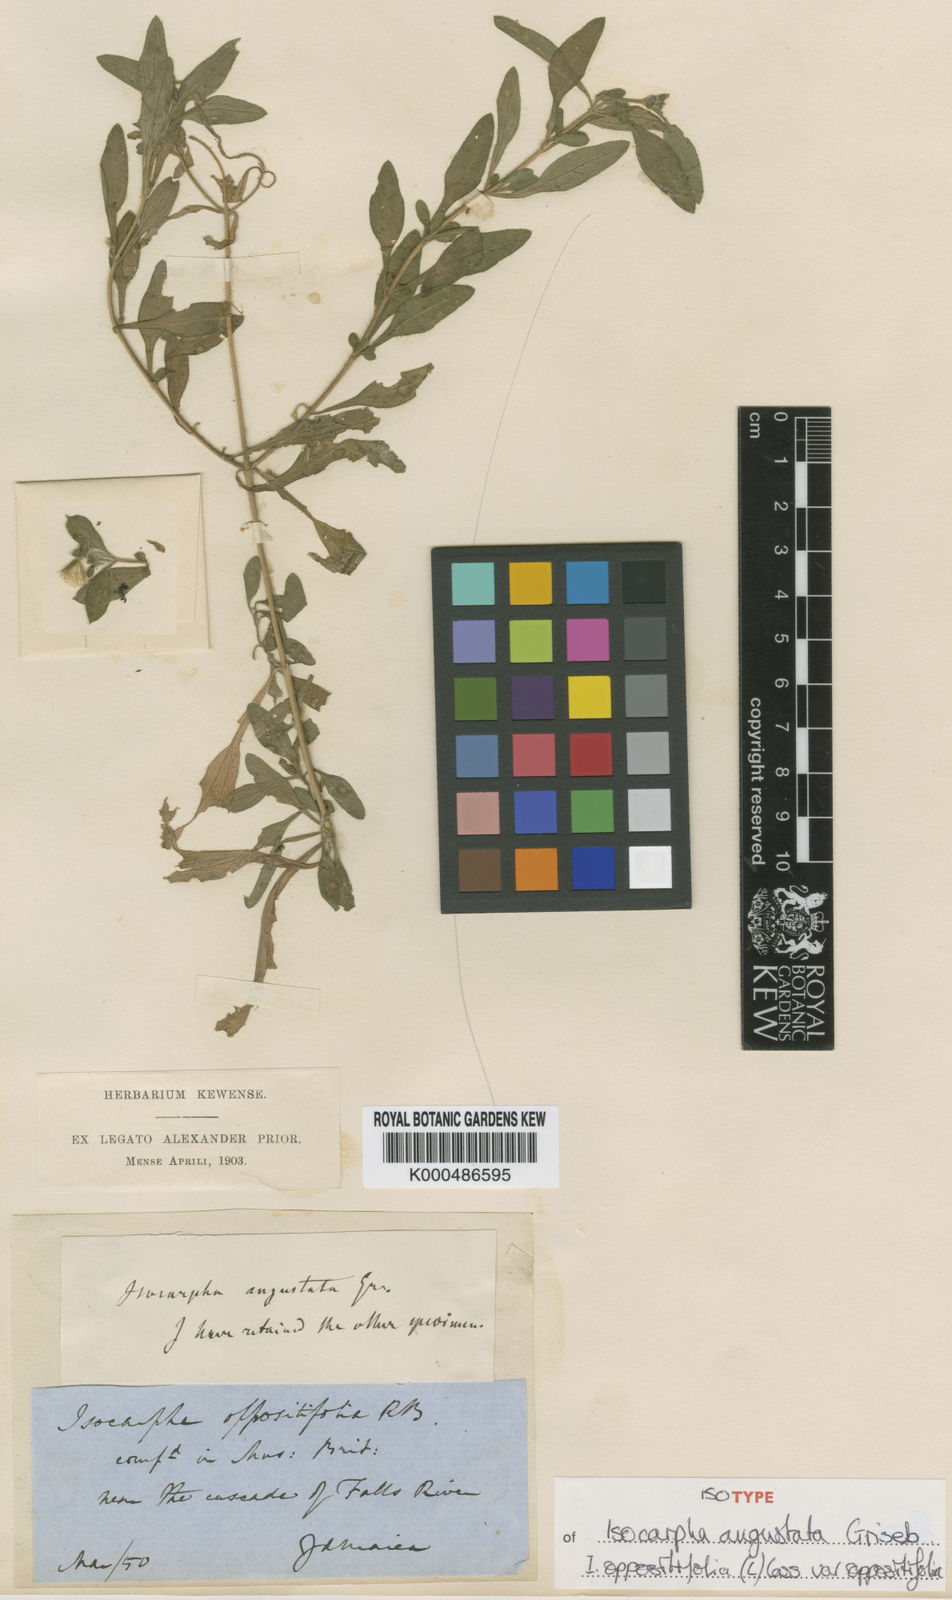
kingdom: Plantae
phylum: Tracheophyta
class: Magnoliopsida
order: Asterales
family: Asteraceae
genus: Isocarpha
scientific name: Isocarpha oppositifolia
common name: Rio grande pearlhead
